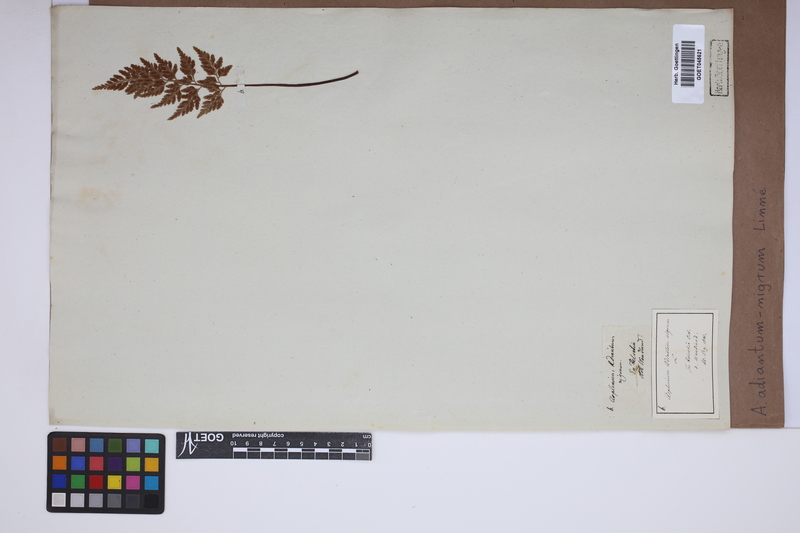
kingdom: Plantae
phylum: Tracheophyta
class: Polypodiopsida
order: Polypodiales
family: Aspleniaceae
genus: Asplenium
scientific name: Asplenium adiantum-nigrum
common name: Black spleenwort
